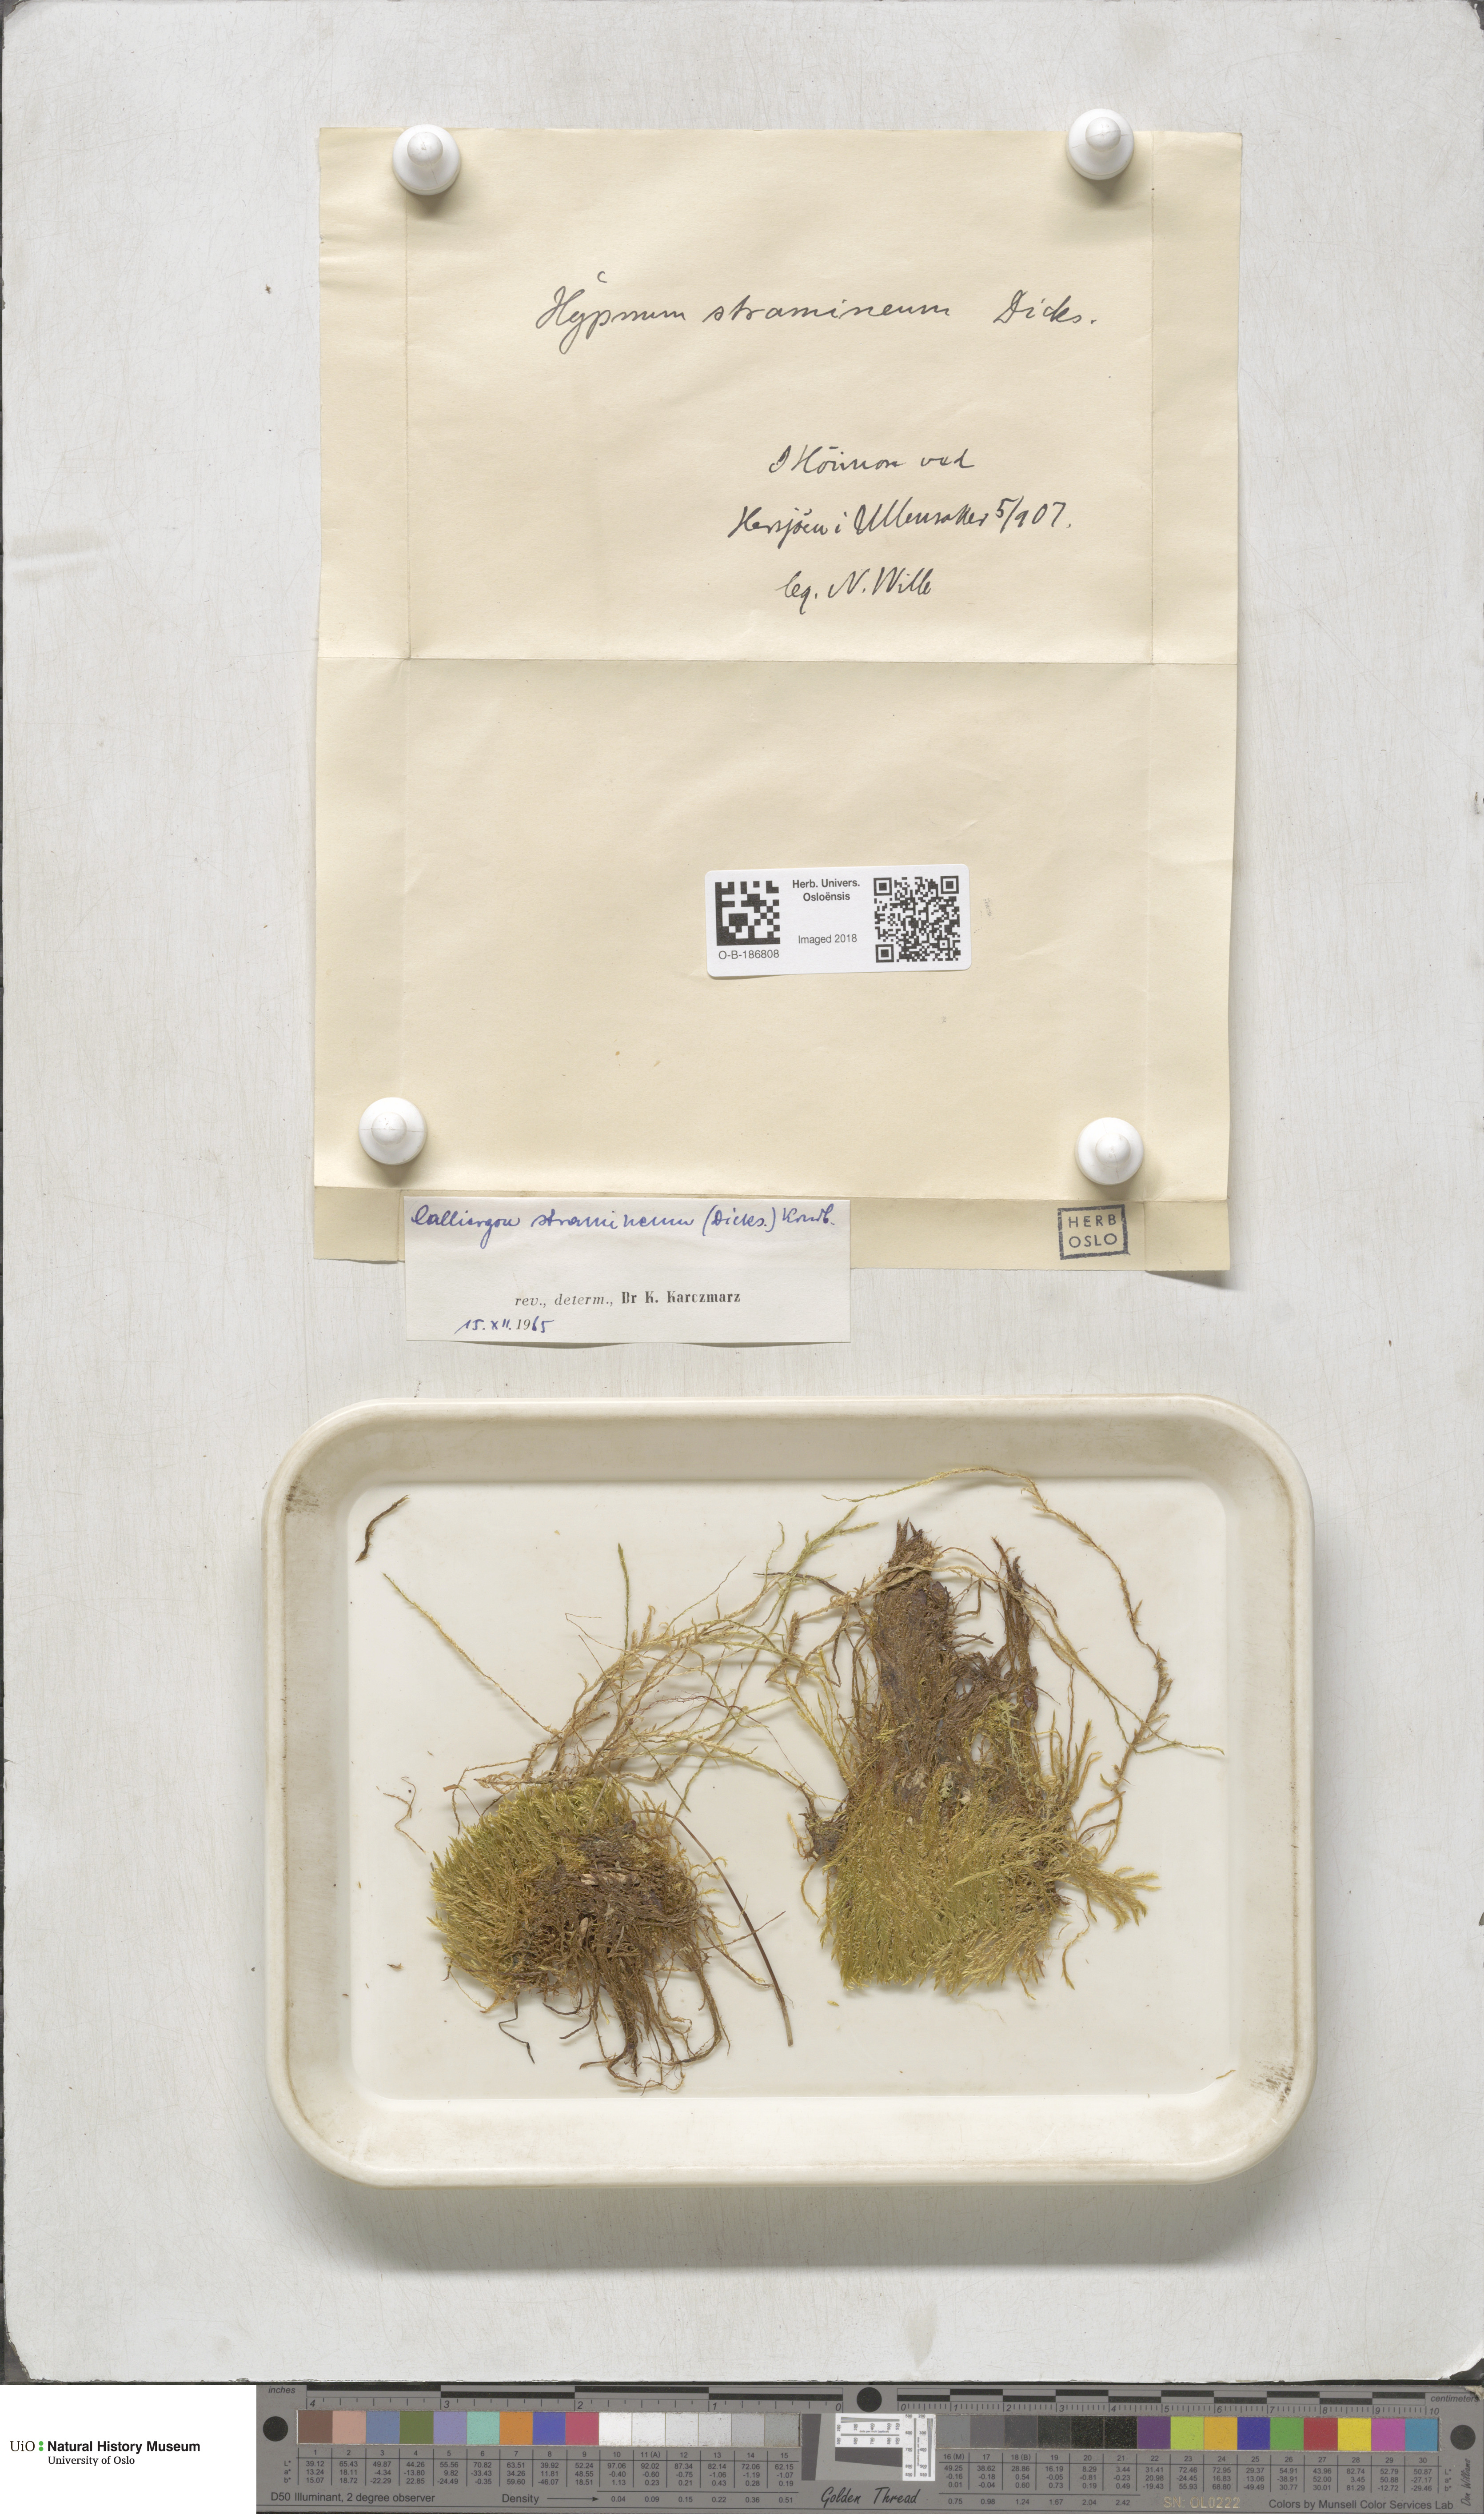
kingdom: Plantae
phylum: Bryophyta
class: Bryopsida
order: Hypnales
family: Calliergonaceae
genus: Straminergon
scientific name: Straminergon stramineum
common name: Straw moss
